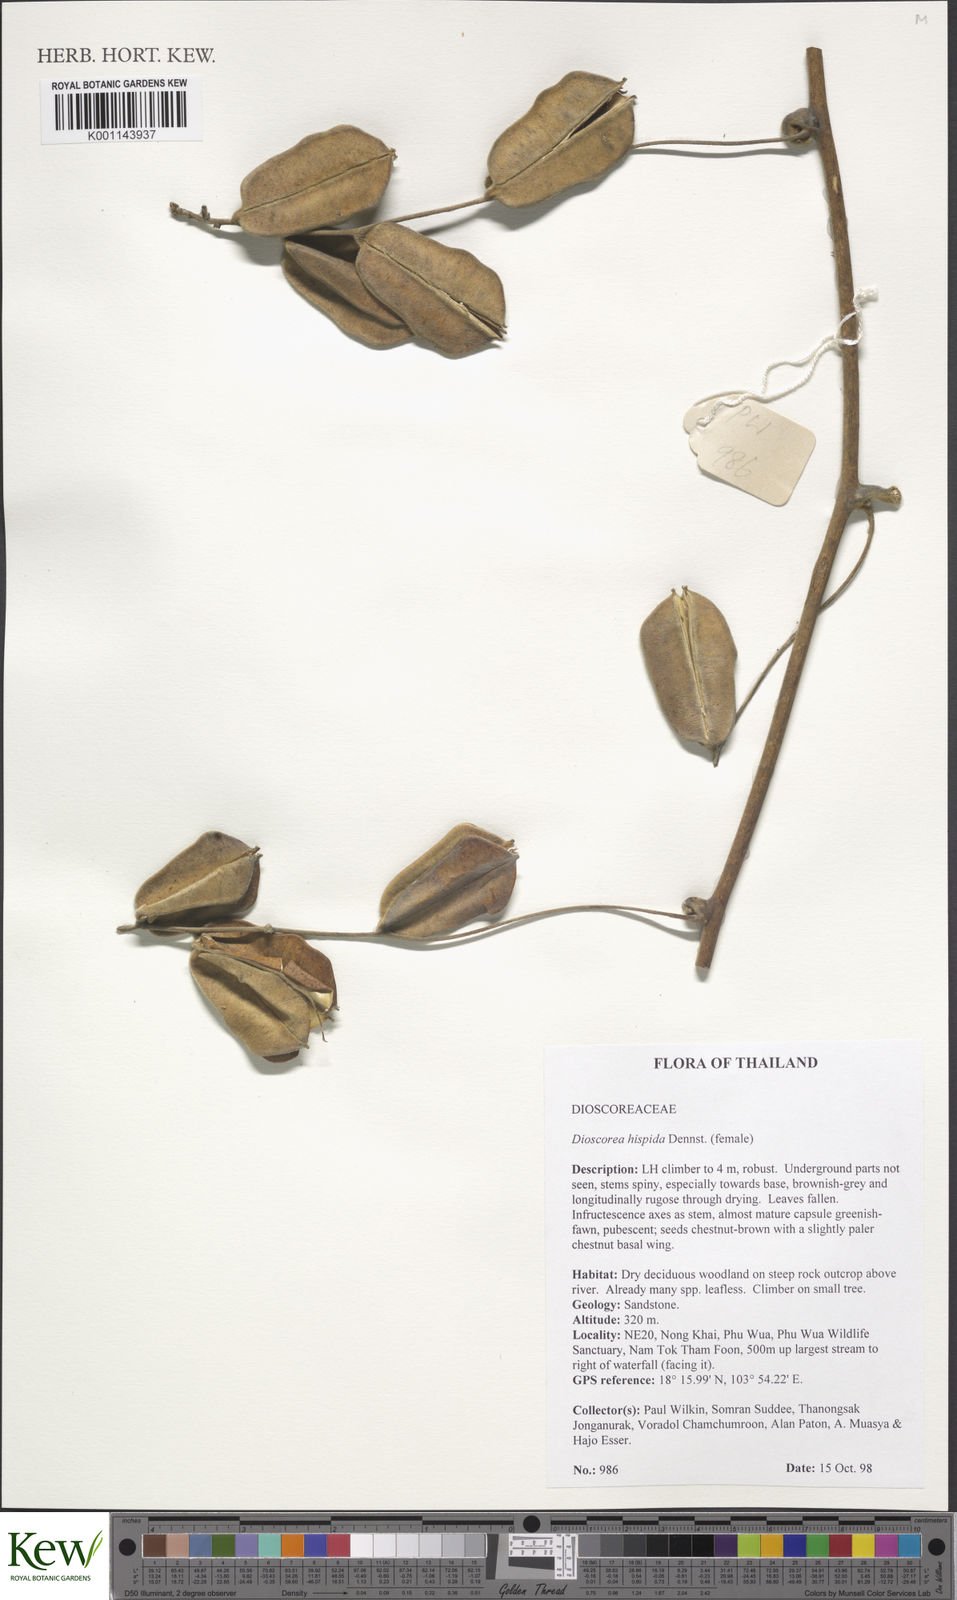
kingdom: Plantae
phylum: Tracheophyta
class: Liliopsida
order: Dioscoreales
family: Dioscoreaceae
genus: Dioscorea
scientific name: Dioscorea hispida
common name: Asiatic bitter yam
